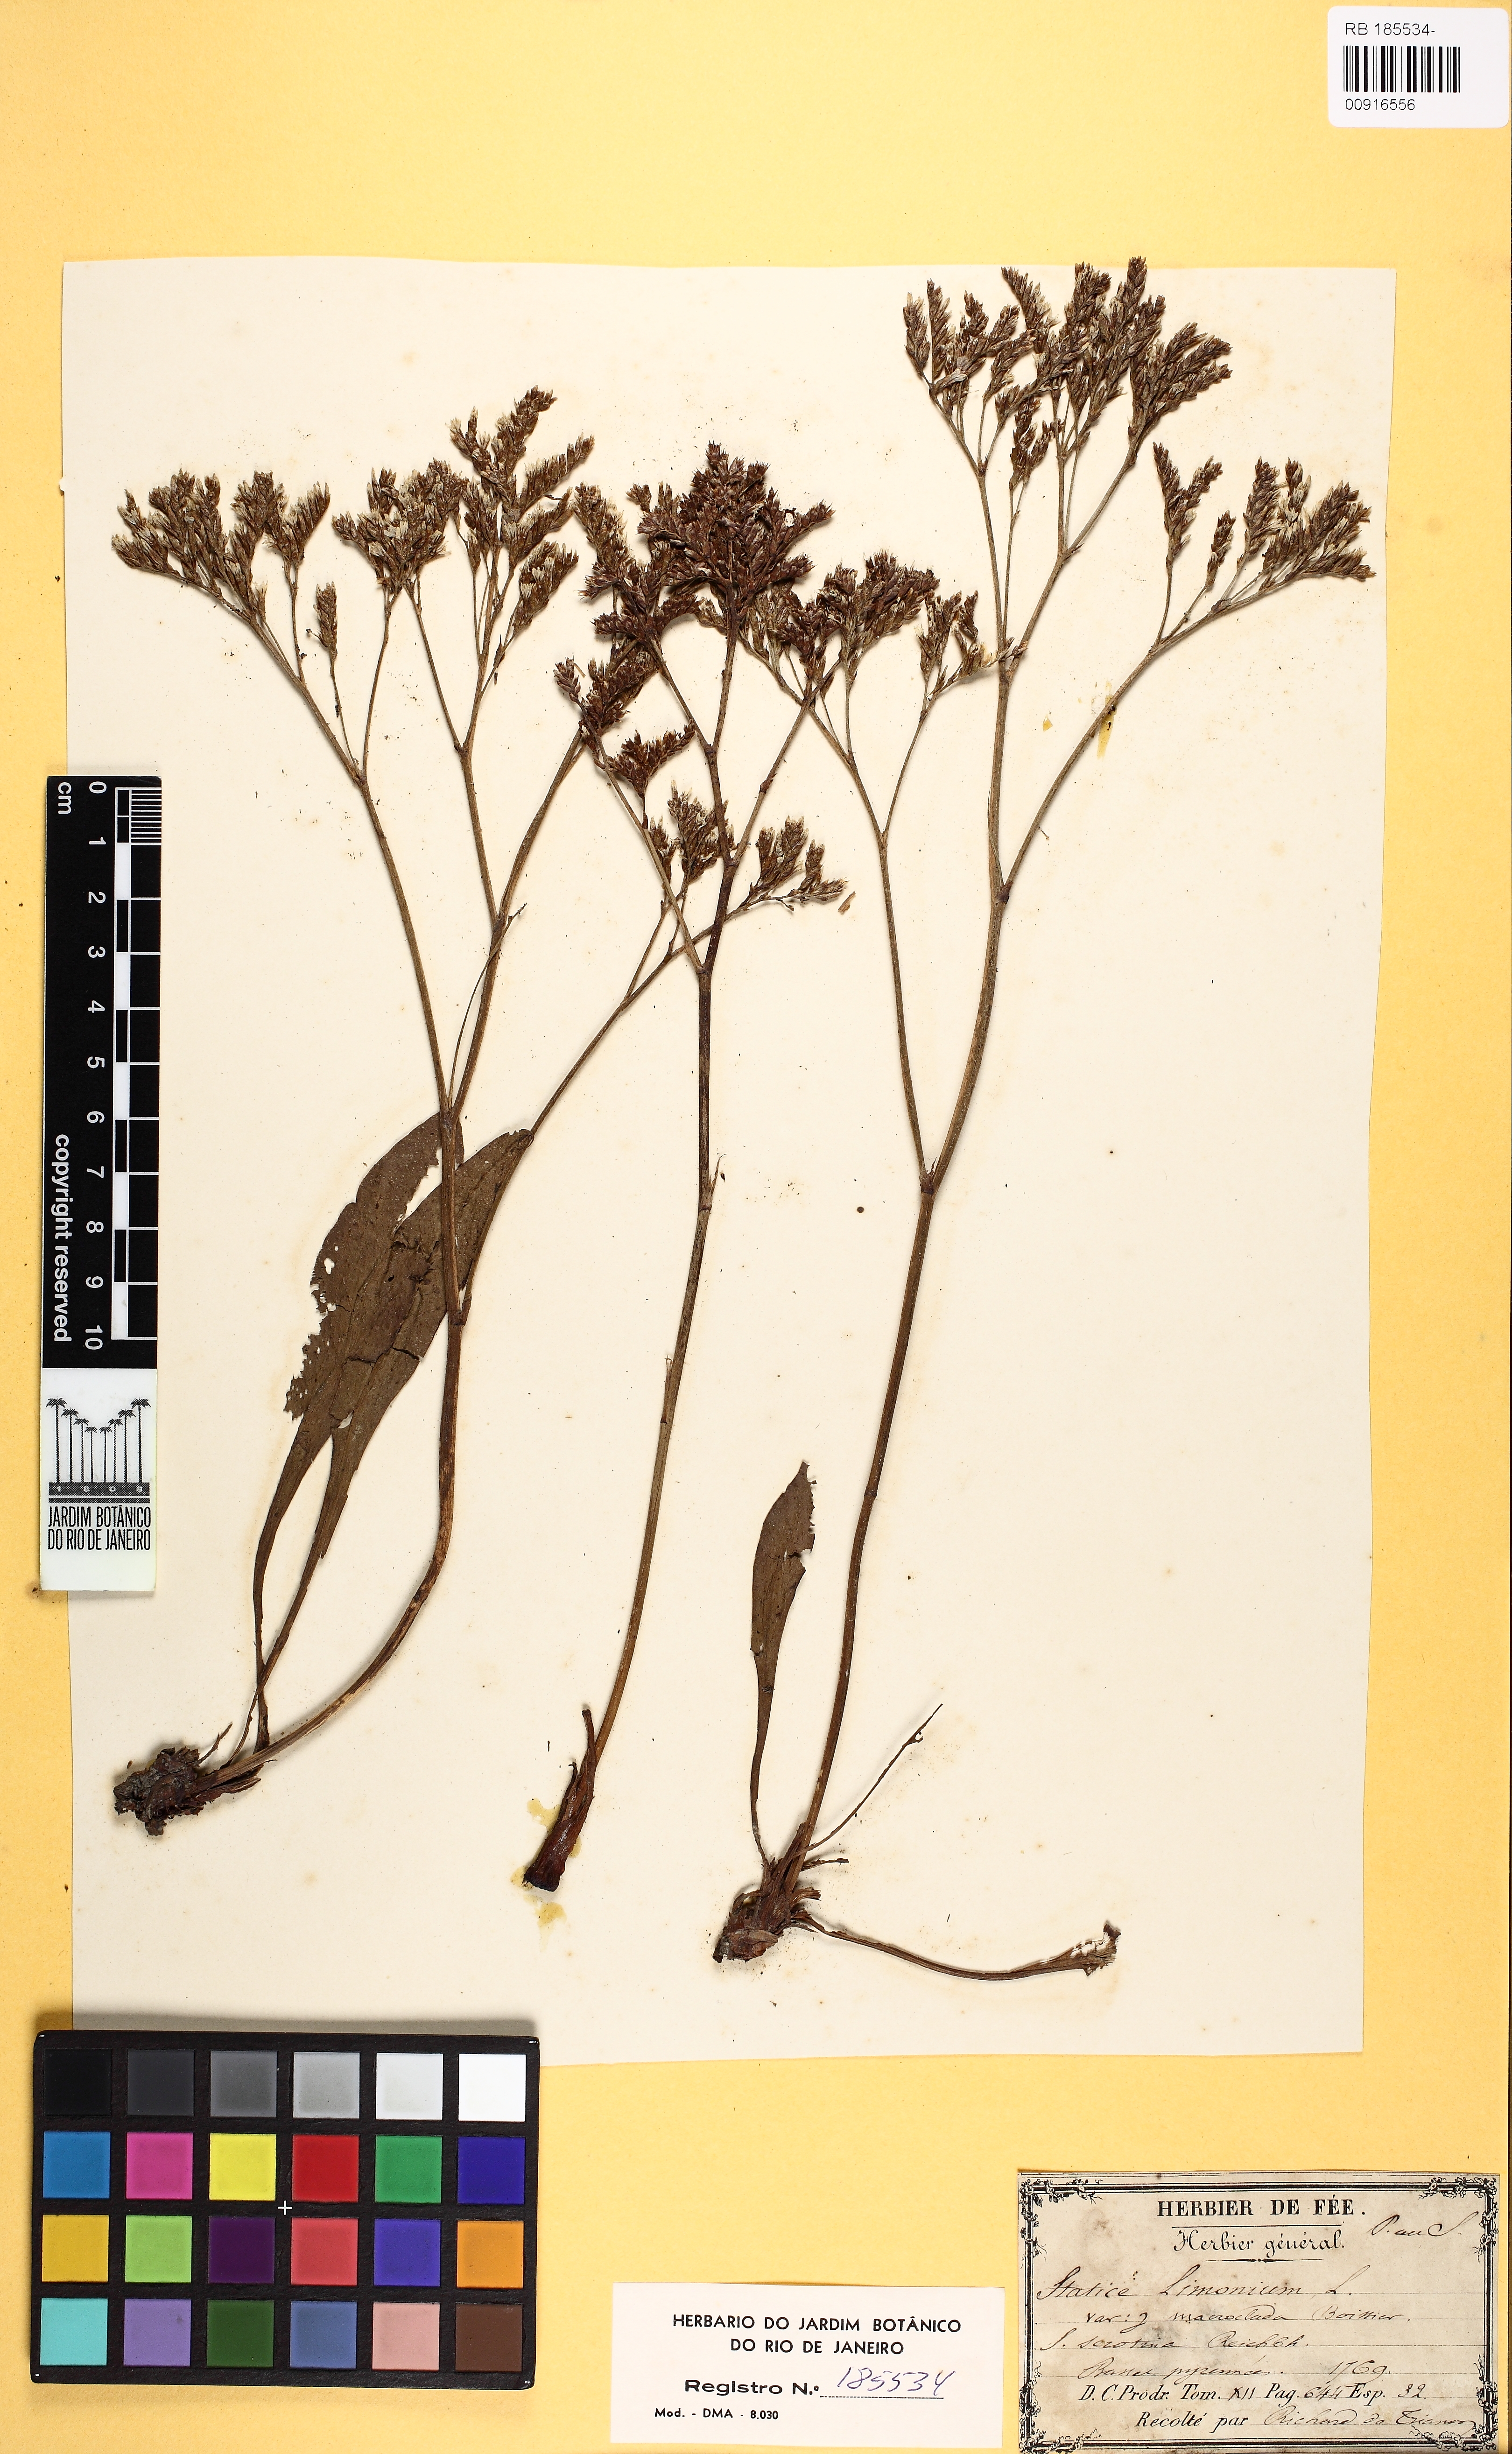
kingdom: Plantae
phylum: Tracheophyta
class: Magnoliopsida
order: Caryophyllales
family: Plumbaginaceae
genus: Limonium
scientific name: Limonium vulgare
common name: Common sea-lavender
